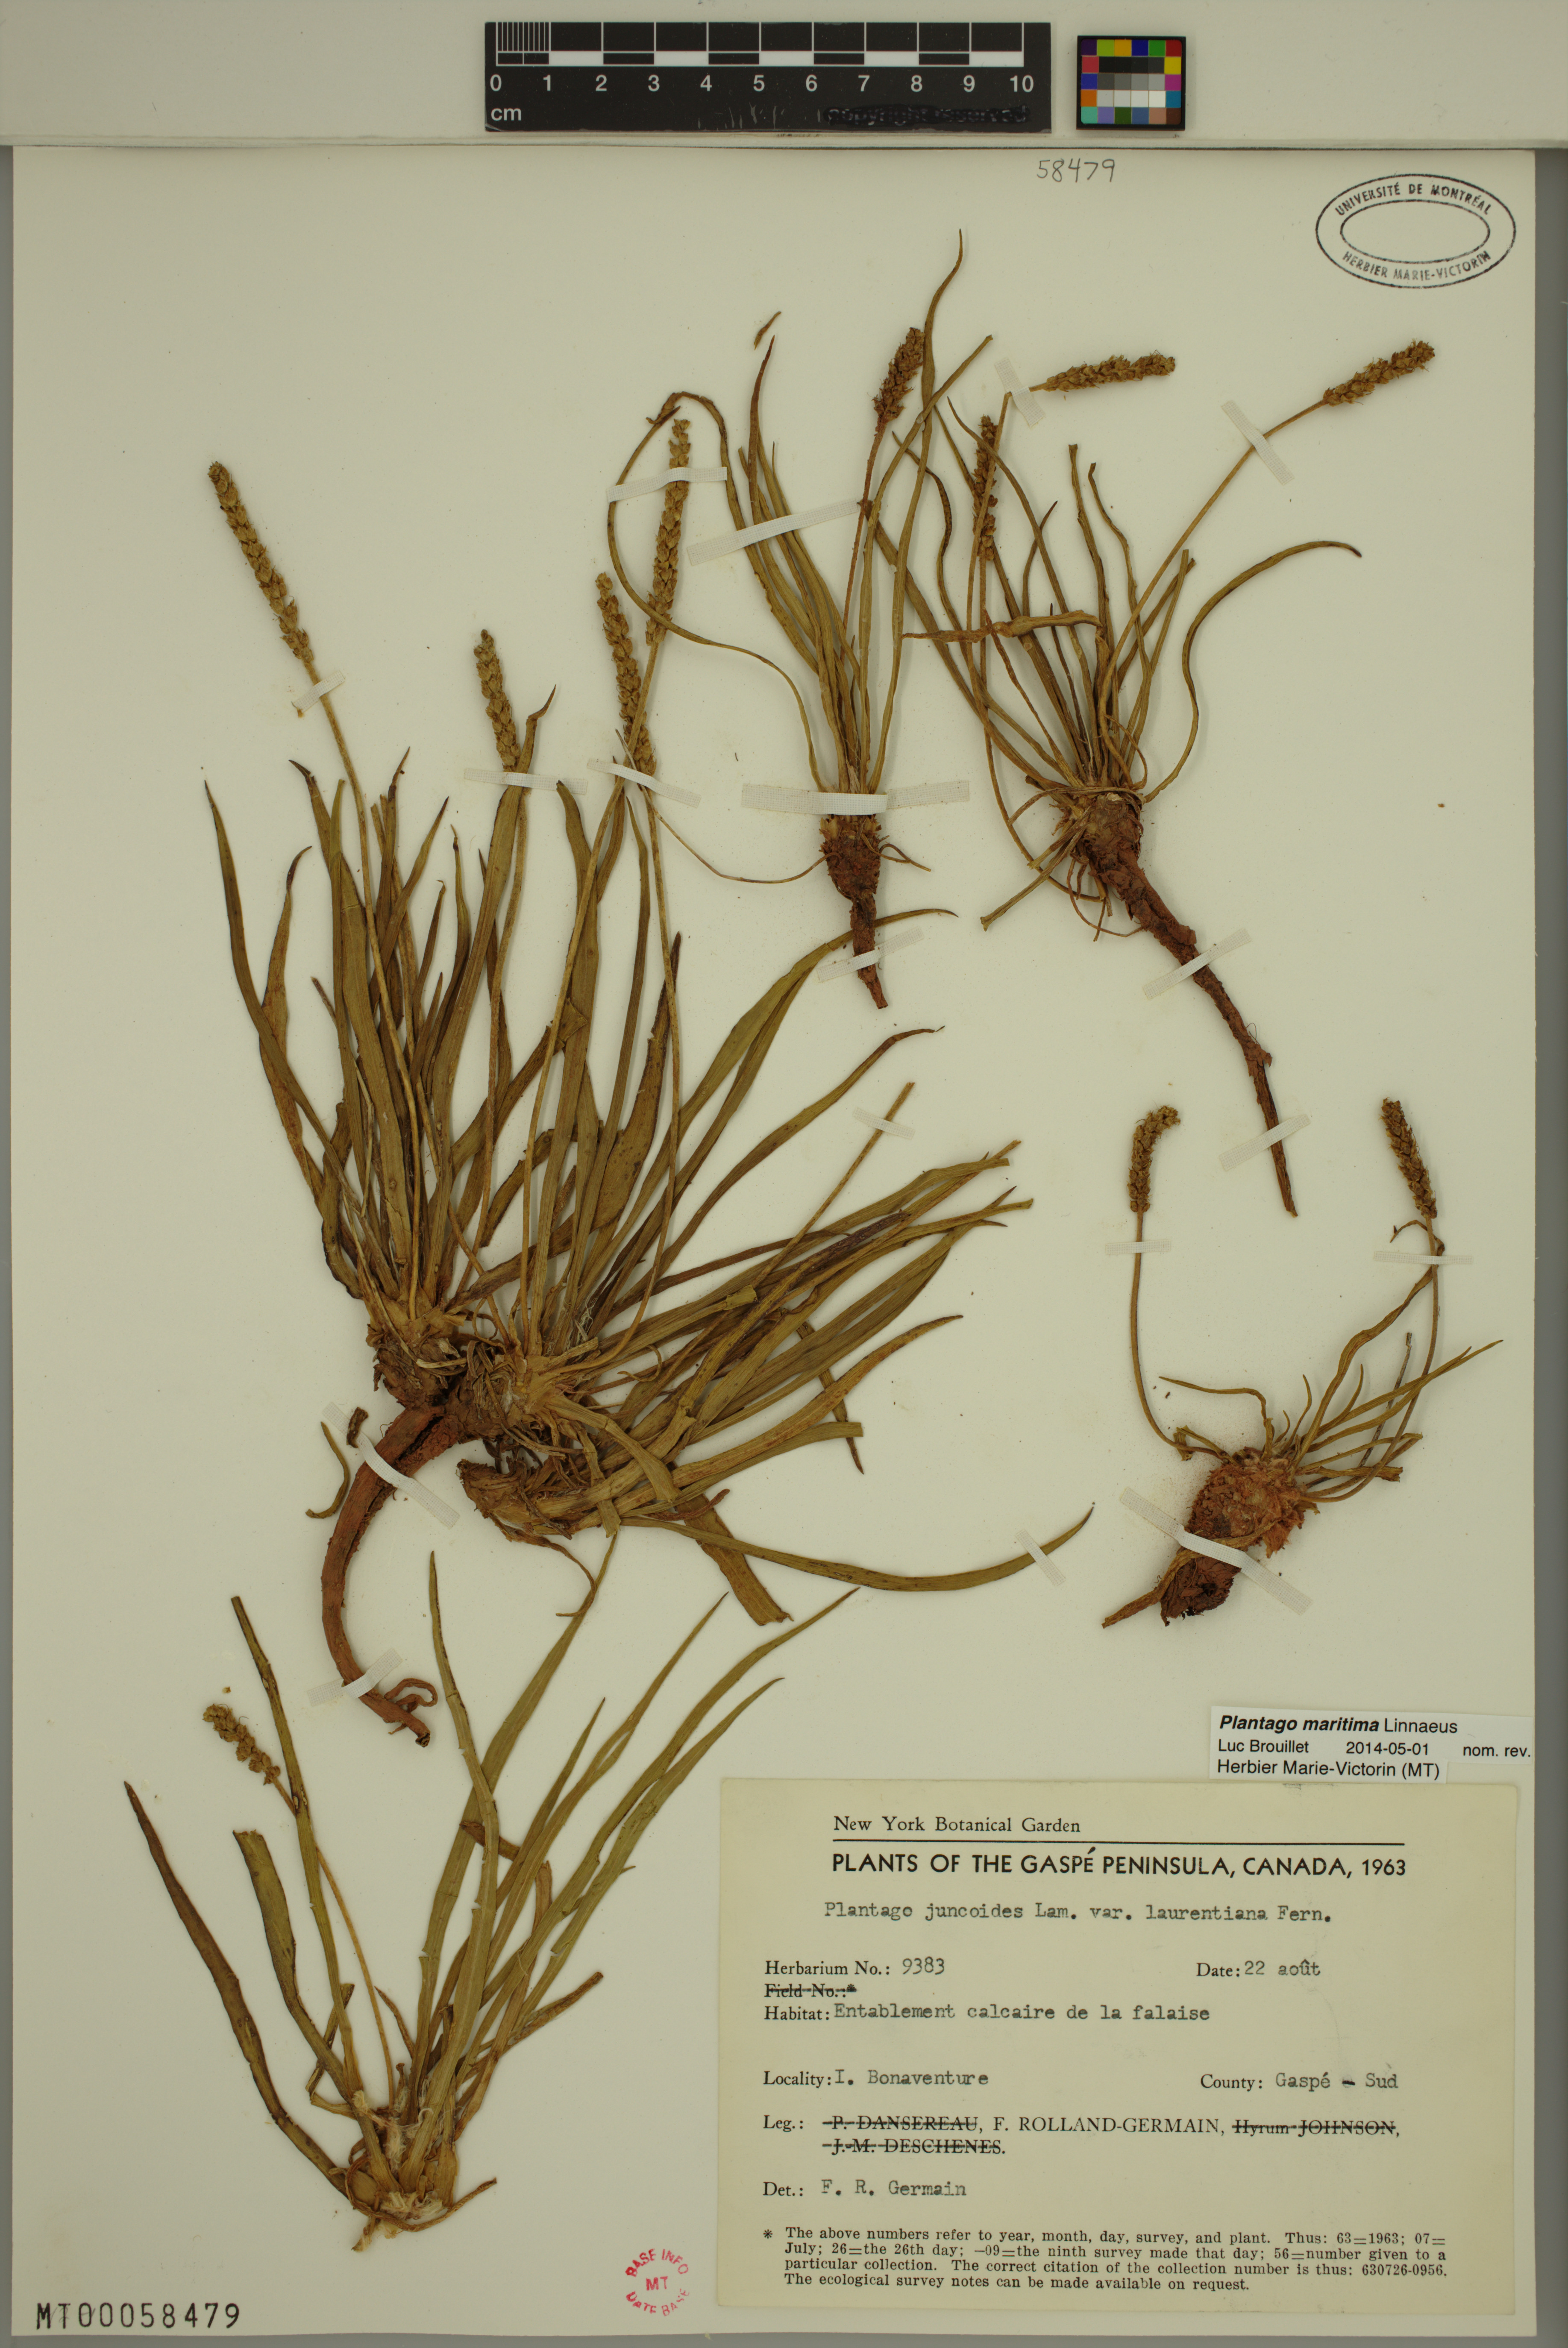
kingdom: Plantae
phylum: Tracheophyta
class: Magnoliopsida
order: Lamiales
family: Plantaginaceae
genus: Plantago
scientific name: Plantago maritima
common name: Sea plantain
